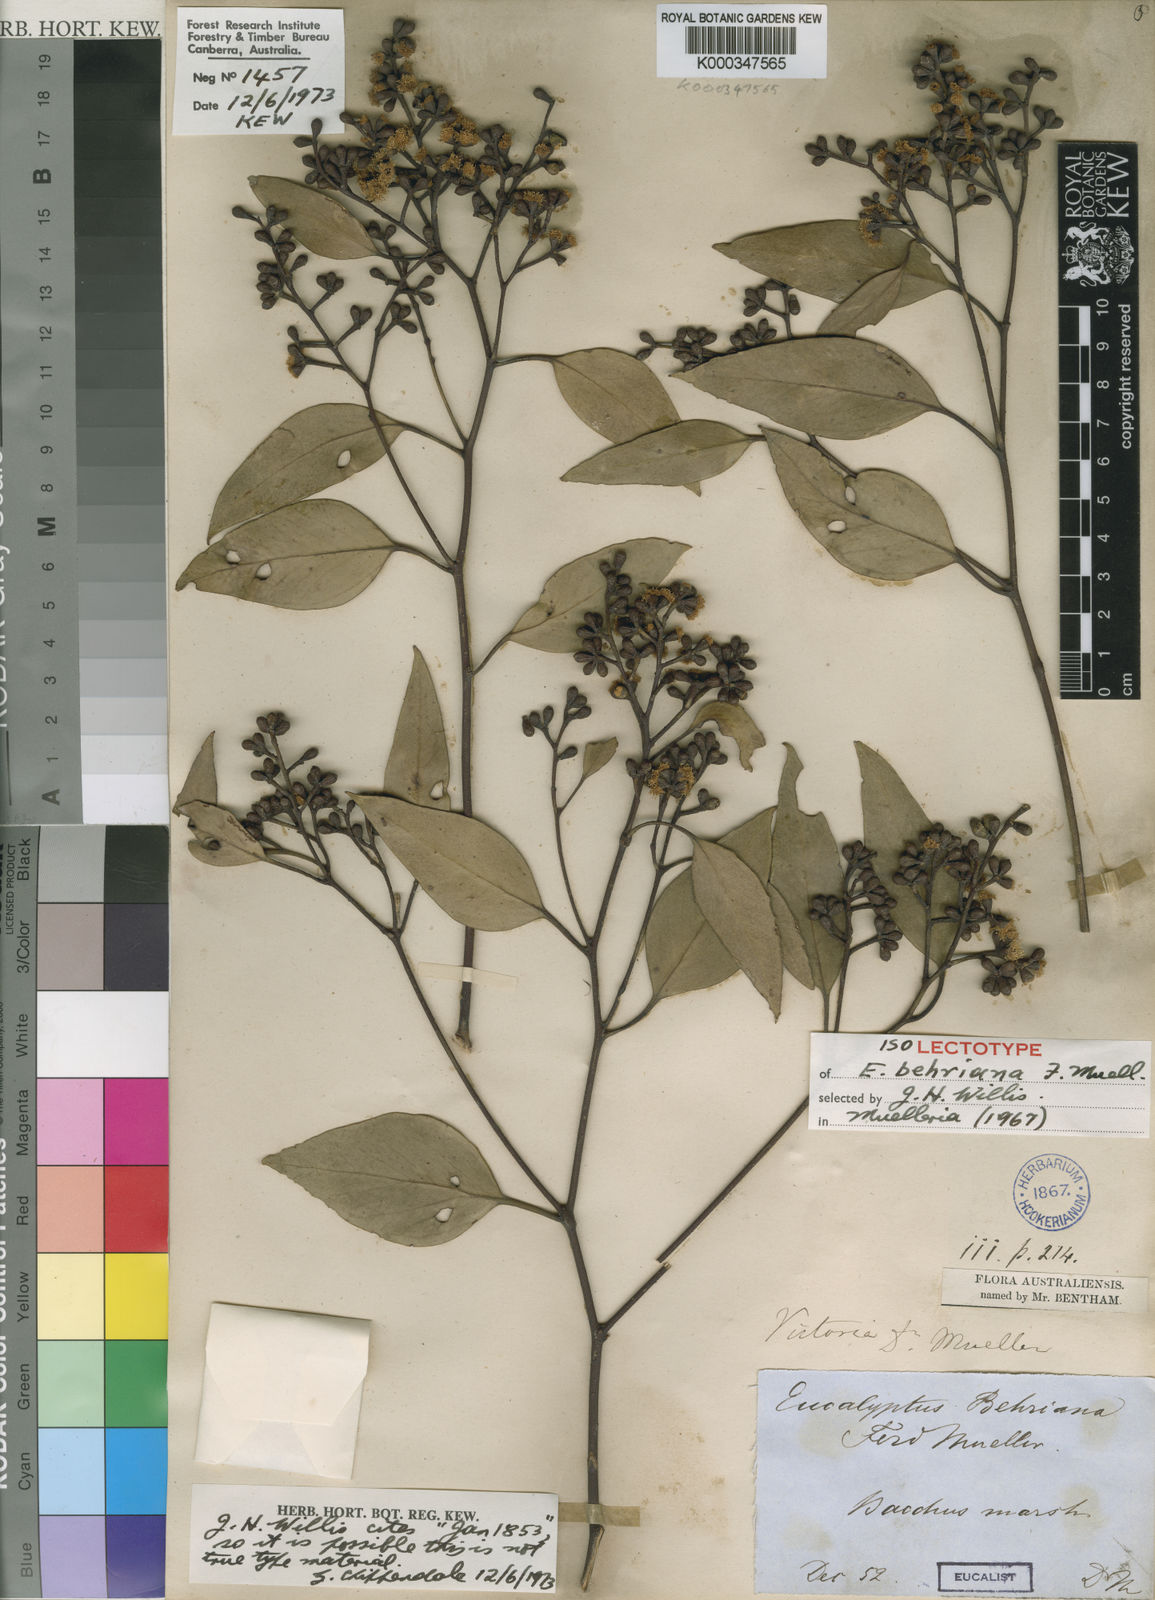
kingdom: Plantae
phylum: Tracheophyta
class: Magnoliopsida
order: Myrtales
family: Myrtaceae
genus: Eucalyptus
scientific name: Eucalyptus behriana
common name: Bull mallee
